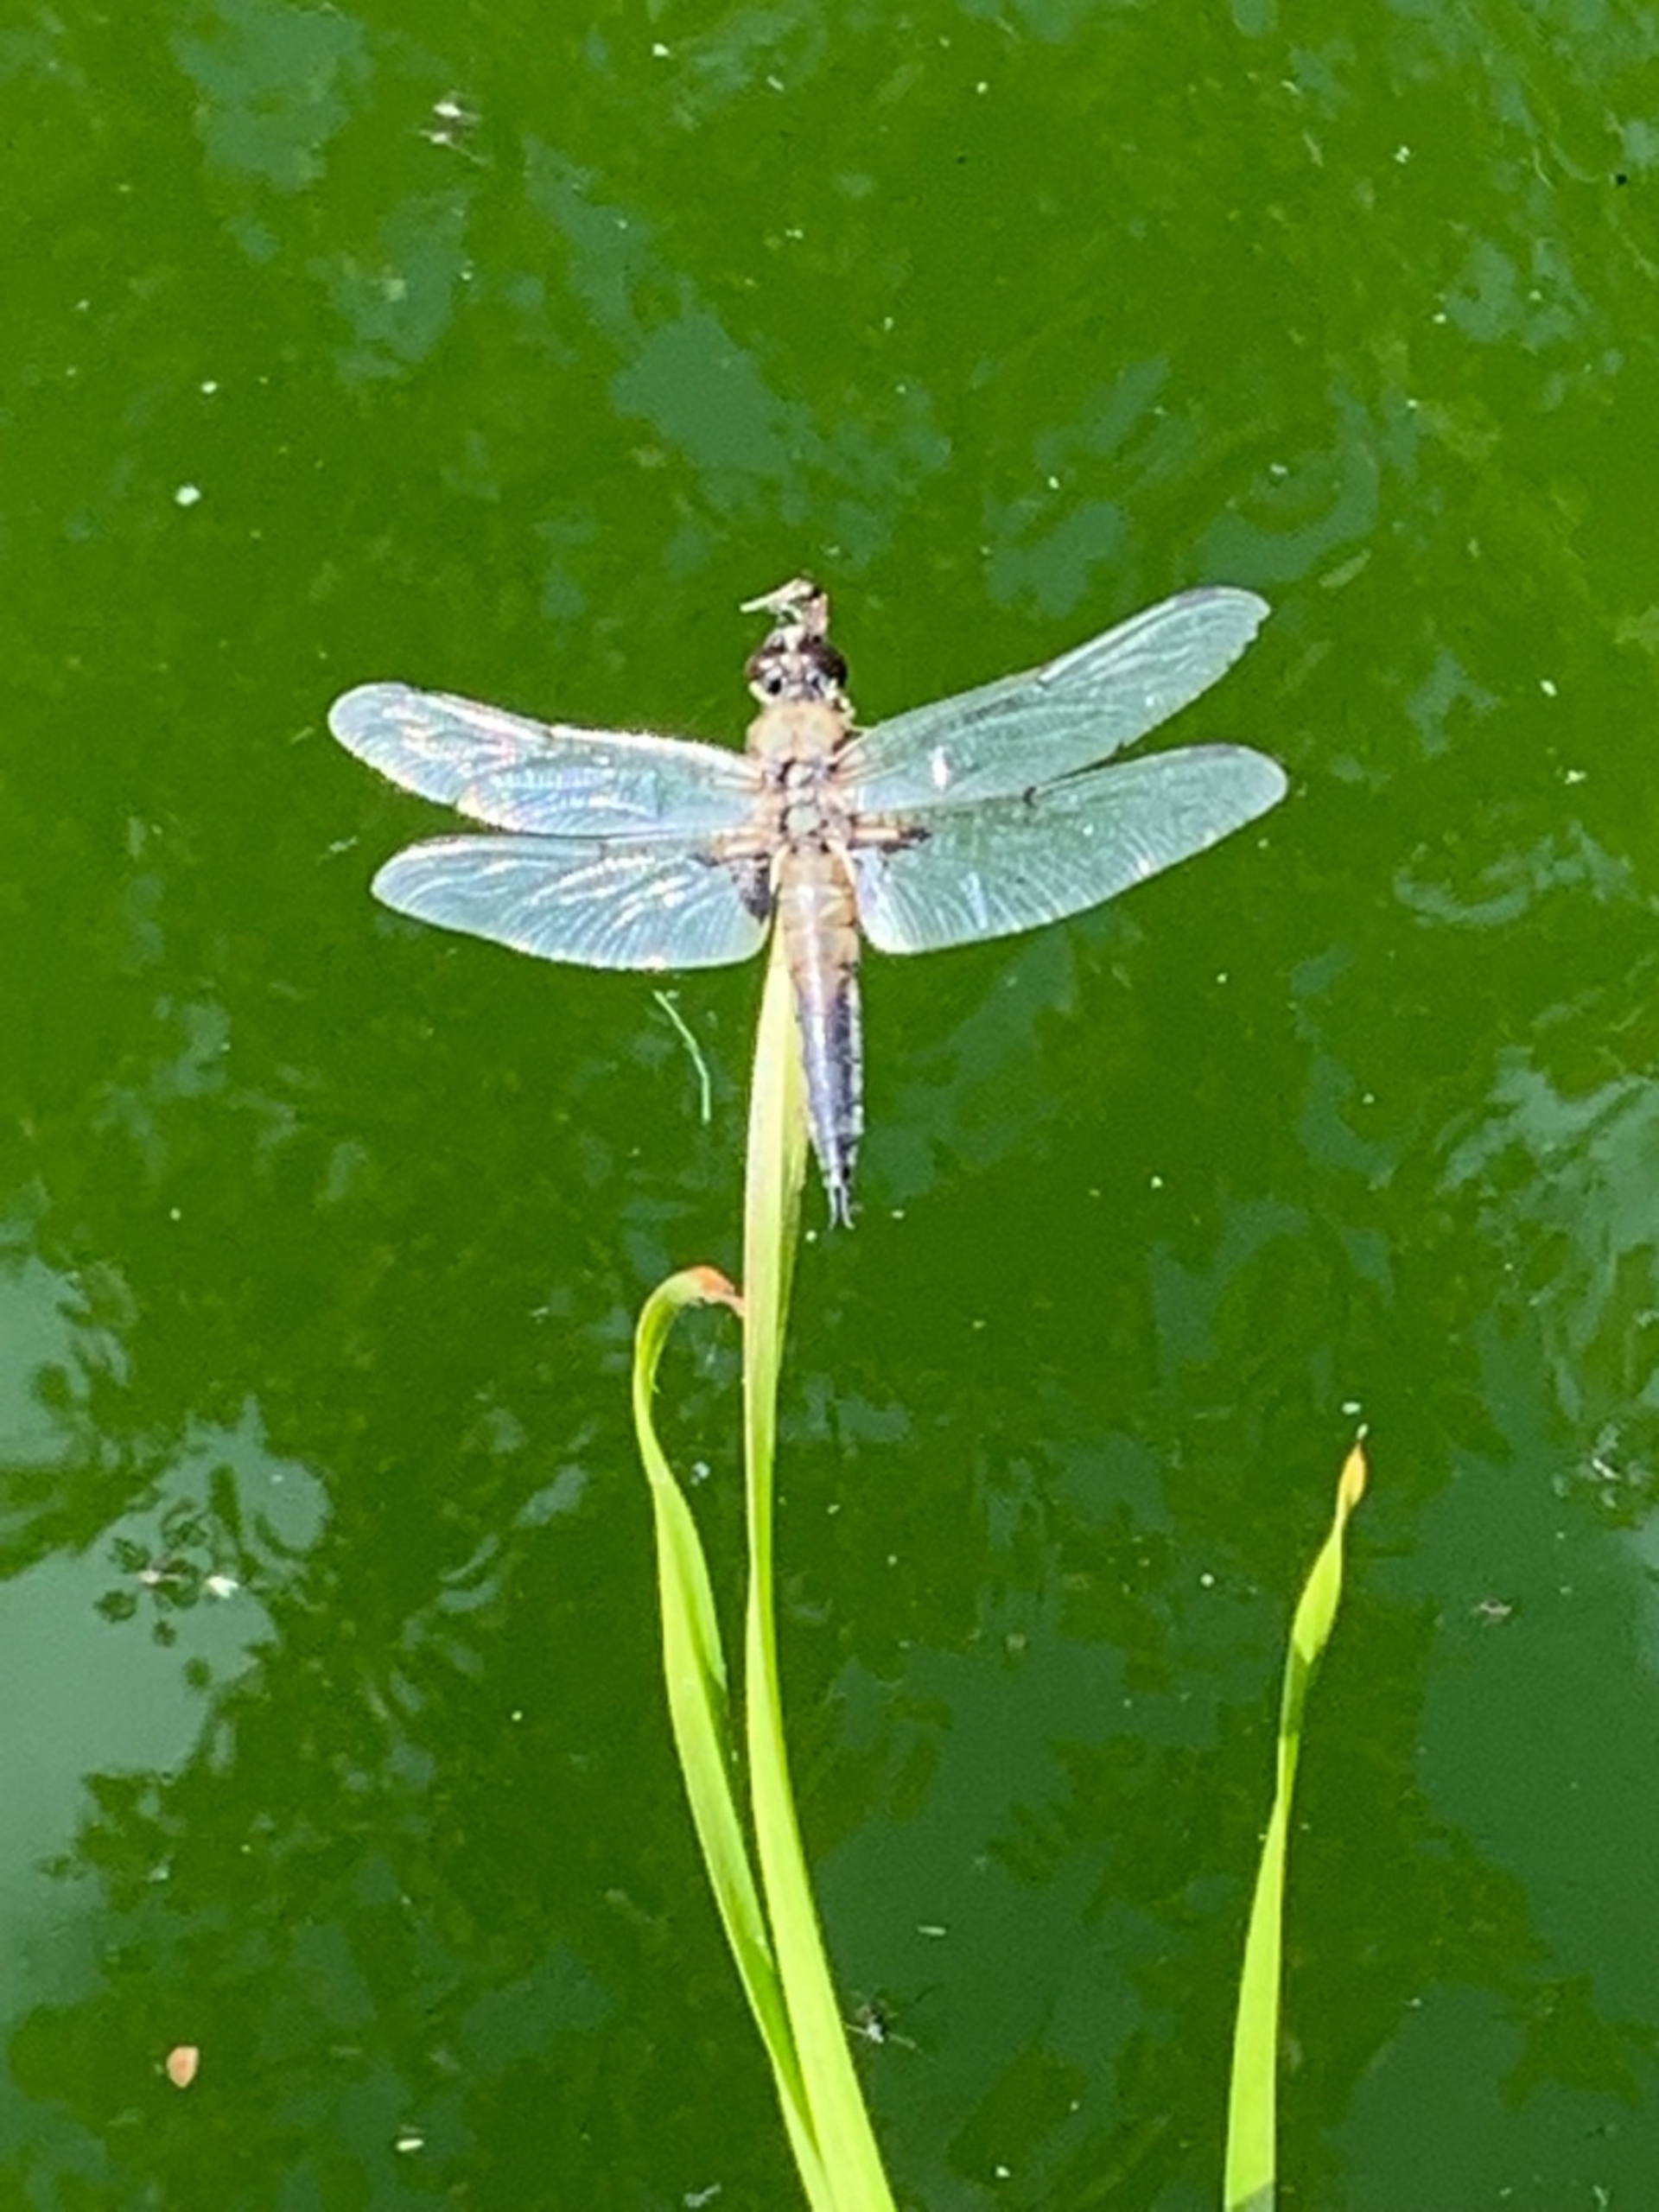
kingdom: Animalia
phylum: Arthropoda
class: Insecta
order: Odonata
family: Libellulidae
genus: Libellula
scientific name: Libellula quadrimaculata
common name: Fireplettet libel
